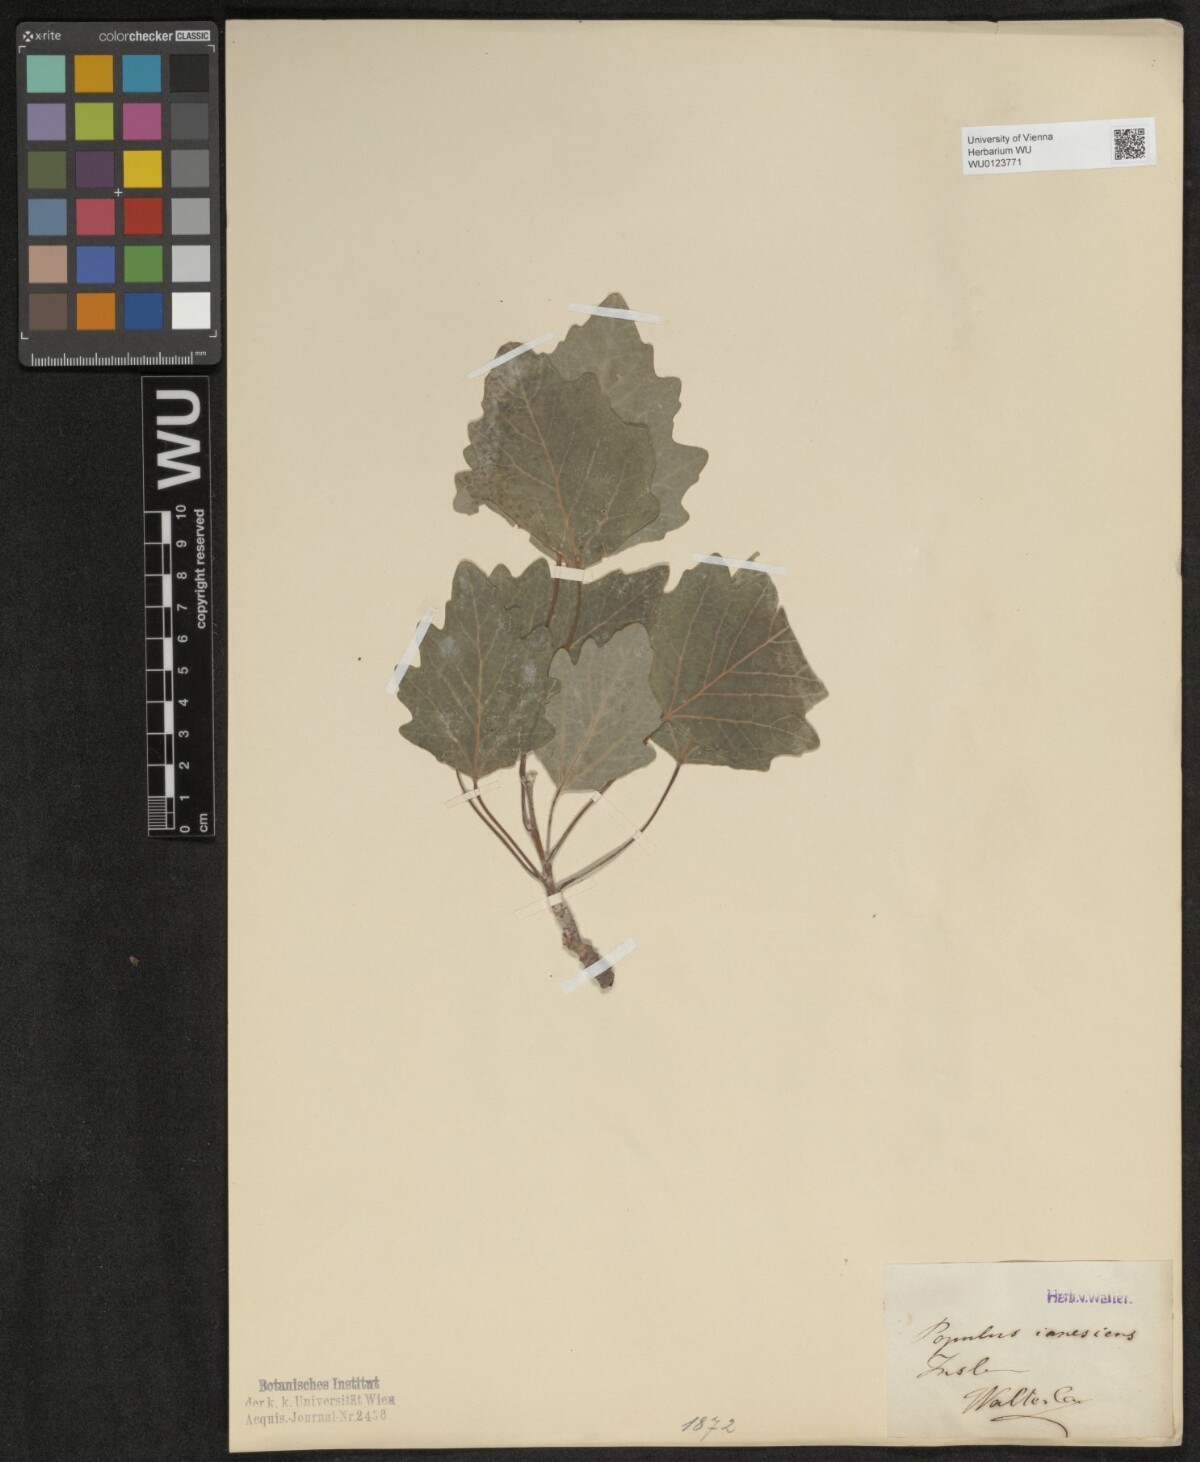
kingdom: Plantae
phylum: Tracheophyta
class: Magnoliopsida
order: Malpighiales
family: Salicaceae
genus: Populus
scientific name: Populus alba
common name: White poplar
